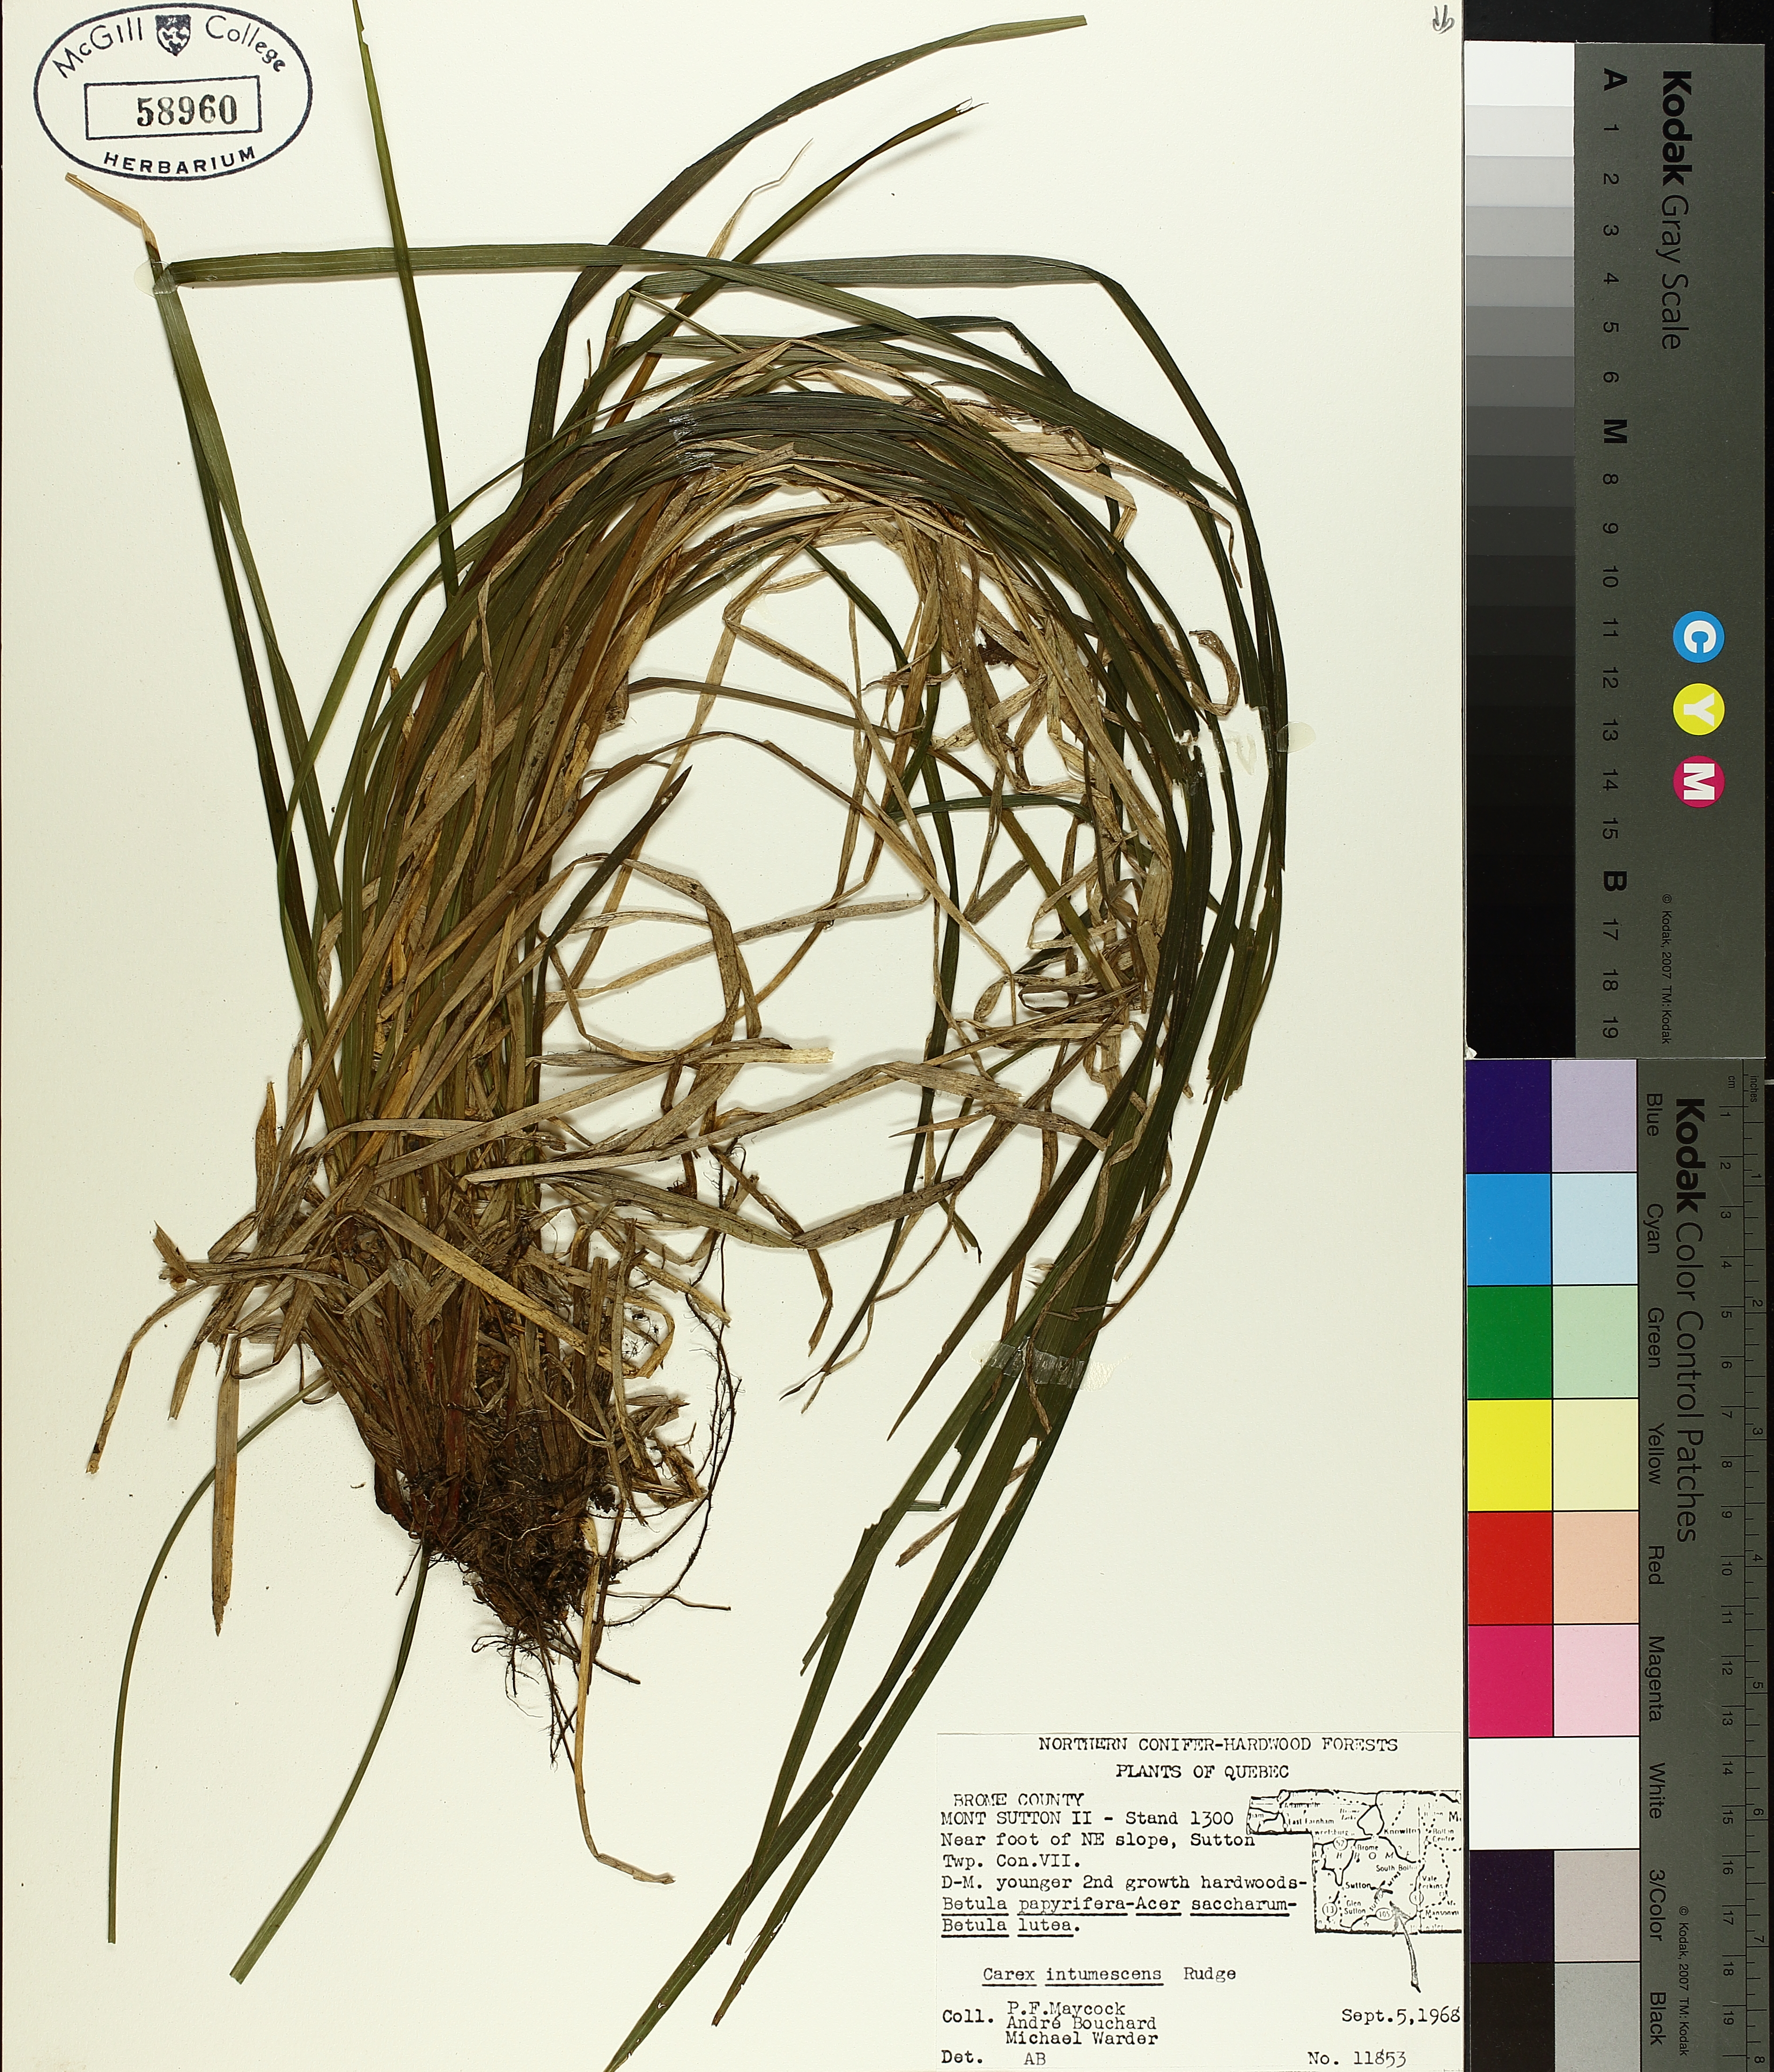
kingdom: Plantae
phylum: Tracheophyta
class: Liliopsida
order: Poales
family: Cyperaceae
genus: Carex
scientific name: Carex intumescens
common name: Greater bladder sedge
